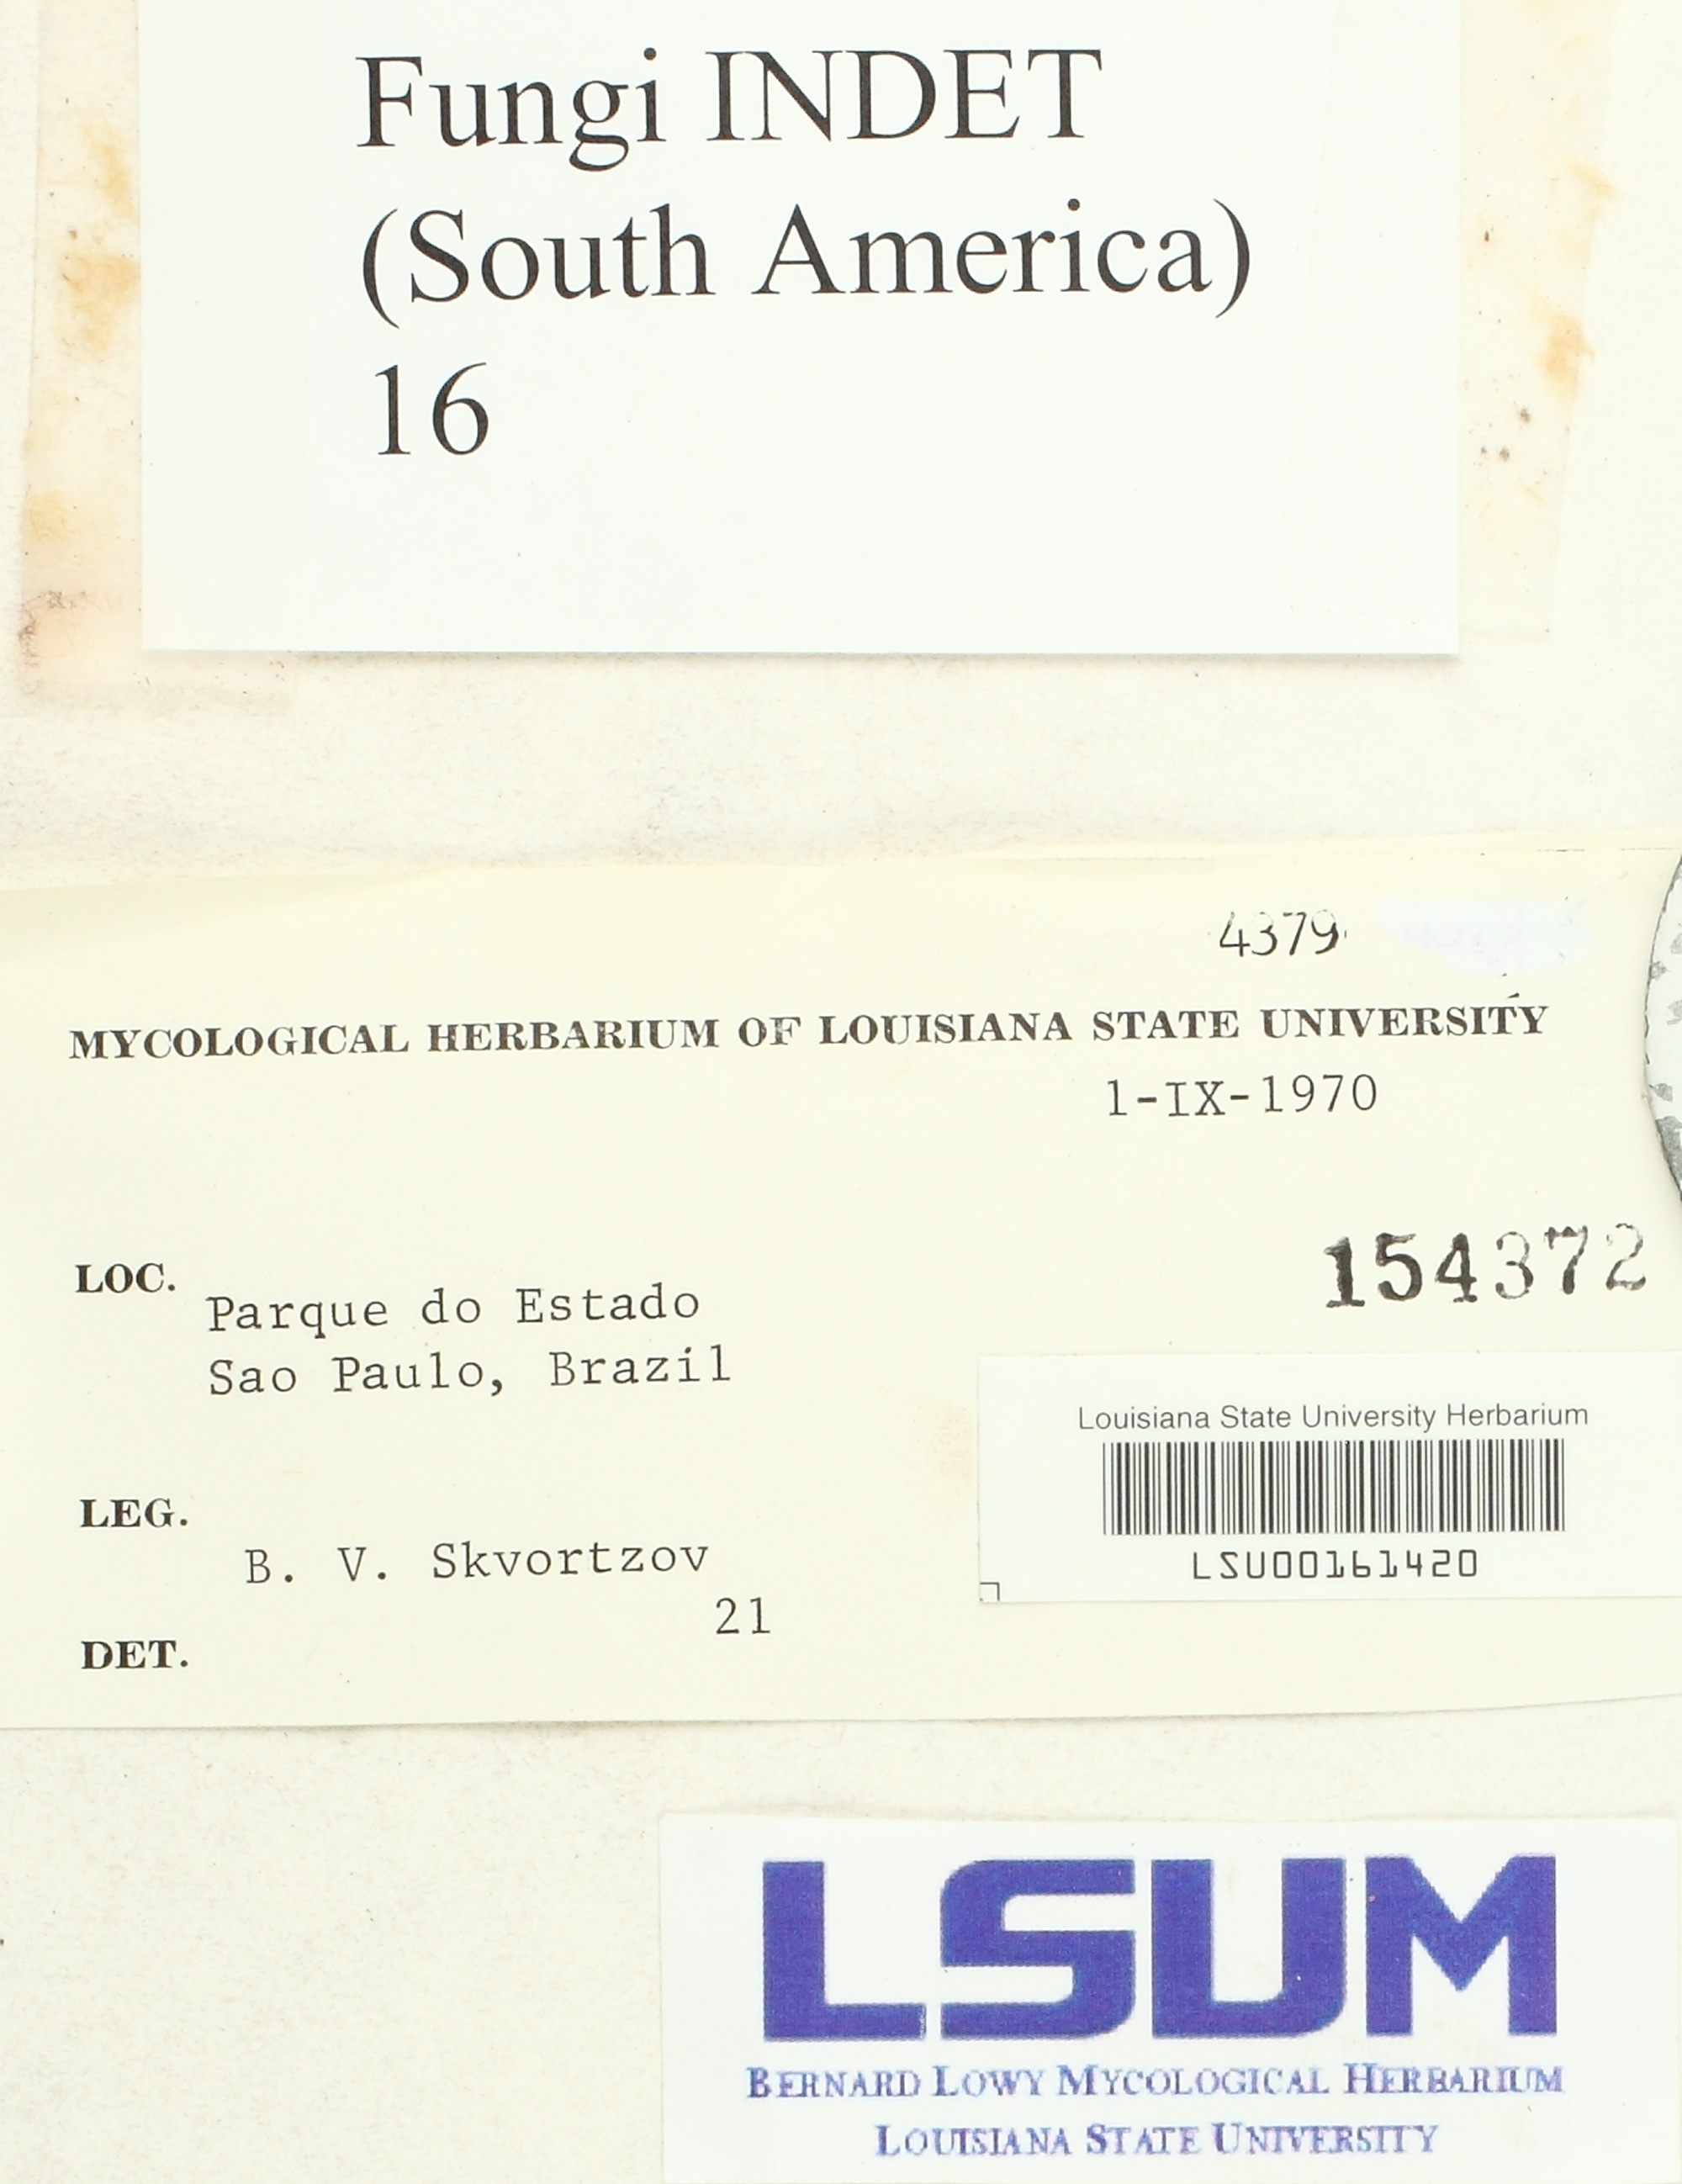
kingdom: Fungi
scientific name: Fungi
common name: Fungi
